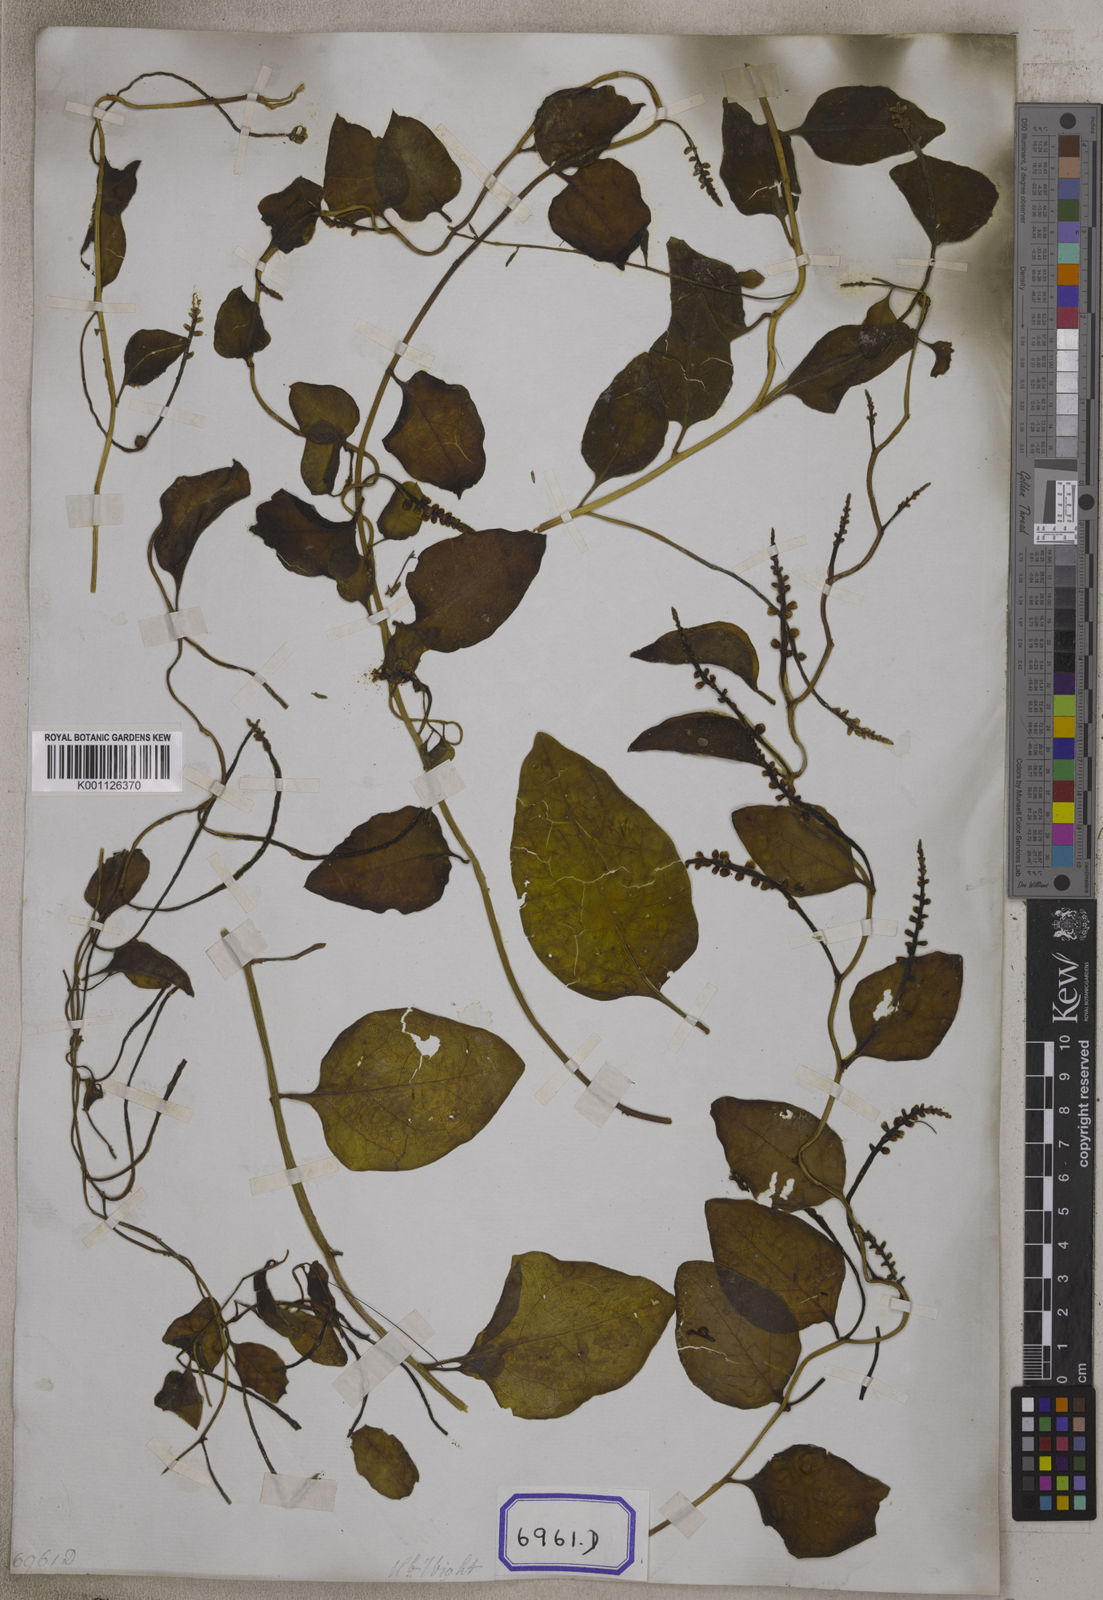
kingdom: Plantae
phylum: Tracheophyta
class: Magnoliopsida
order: Caryophyllales
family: Basellaceae
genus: Basella
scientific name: Basella alba
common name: Indian spinach
